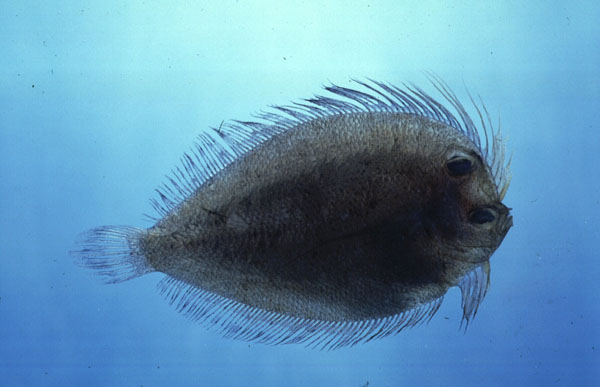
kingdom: Animalia
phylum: Chordata
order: Pleuronectiformes
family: Bothidae
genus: Crossorhombus
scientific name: Crossorhombus valderostratus
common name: Broadbrow flounder
